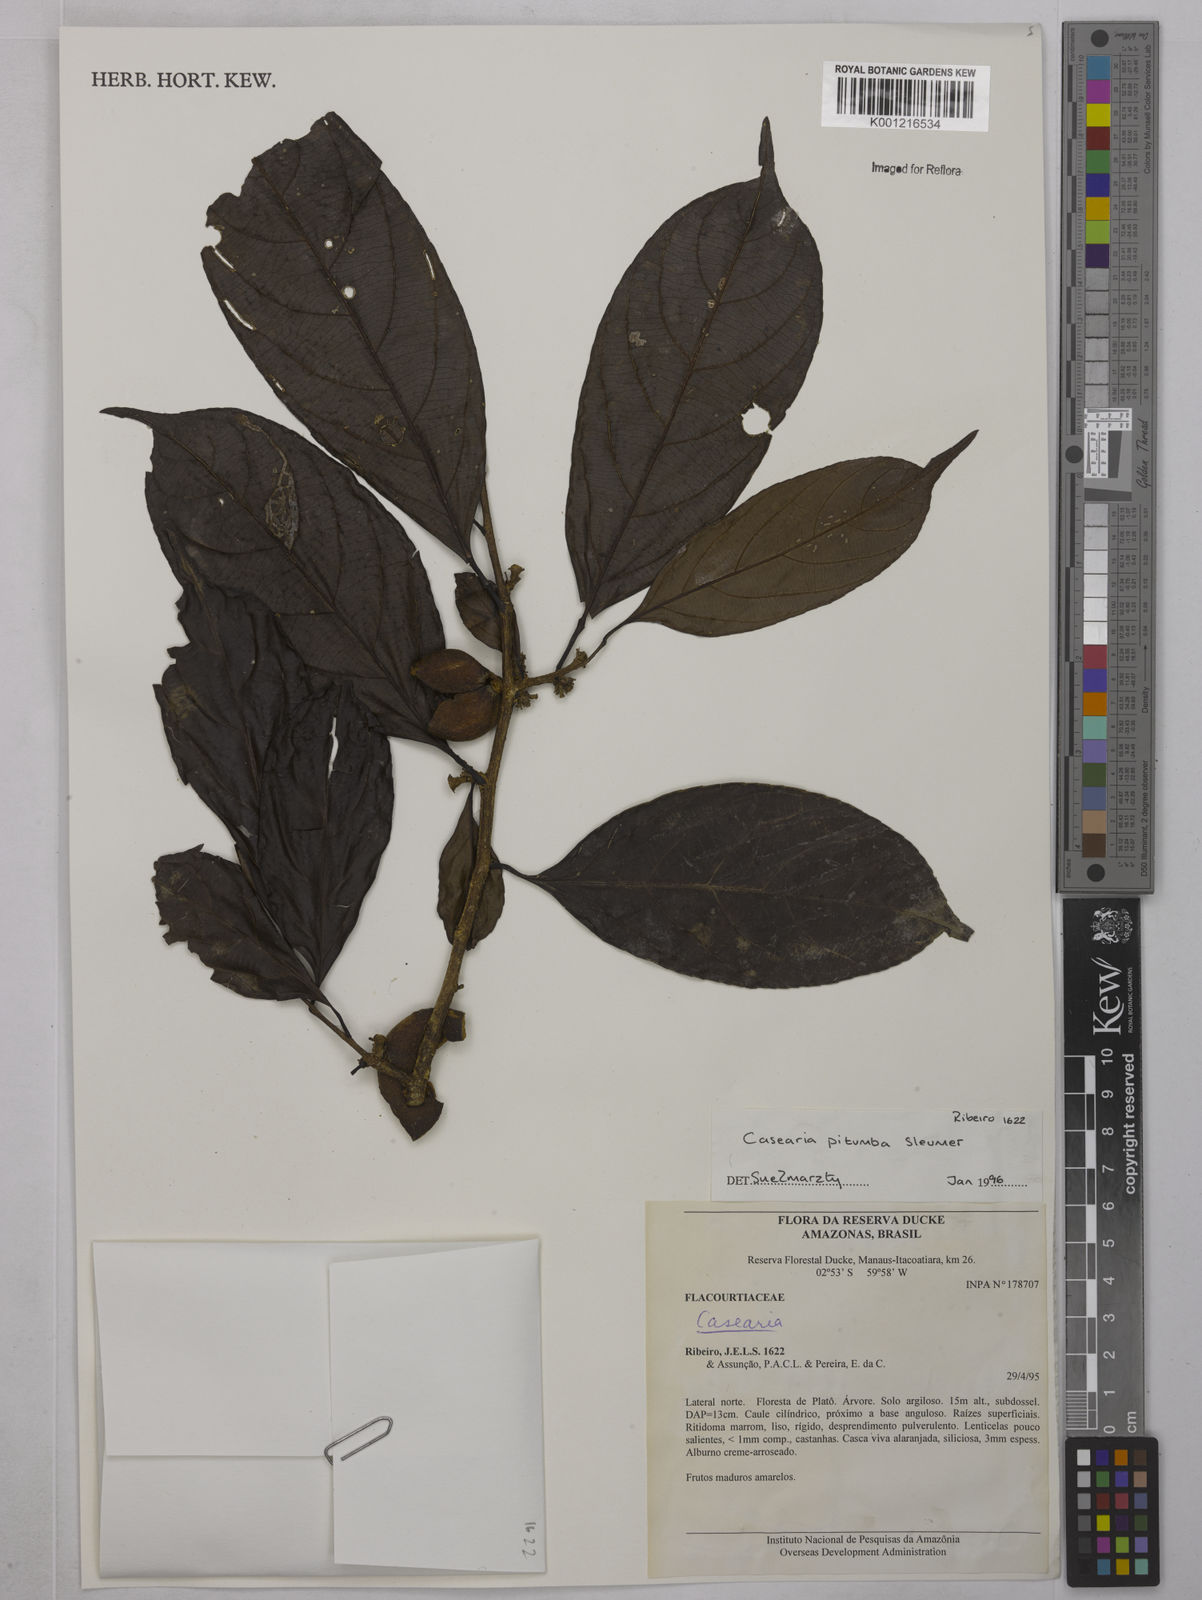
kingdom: Plantae
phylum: Tracheophyta
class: Magnoliopsida
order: Malpighiales
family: Salicaceae
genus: Casearia
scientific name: Casearia pitumba
